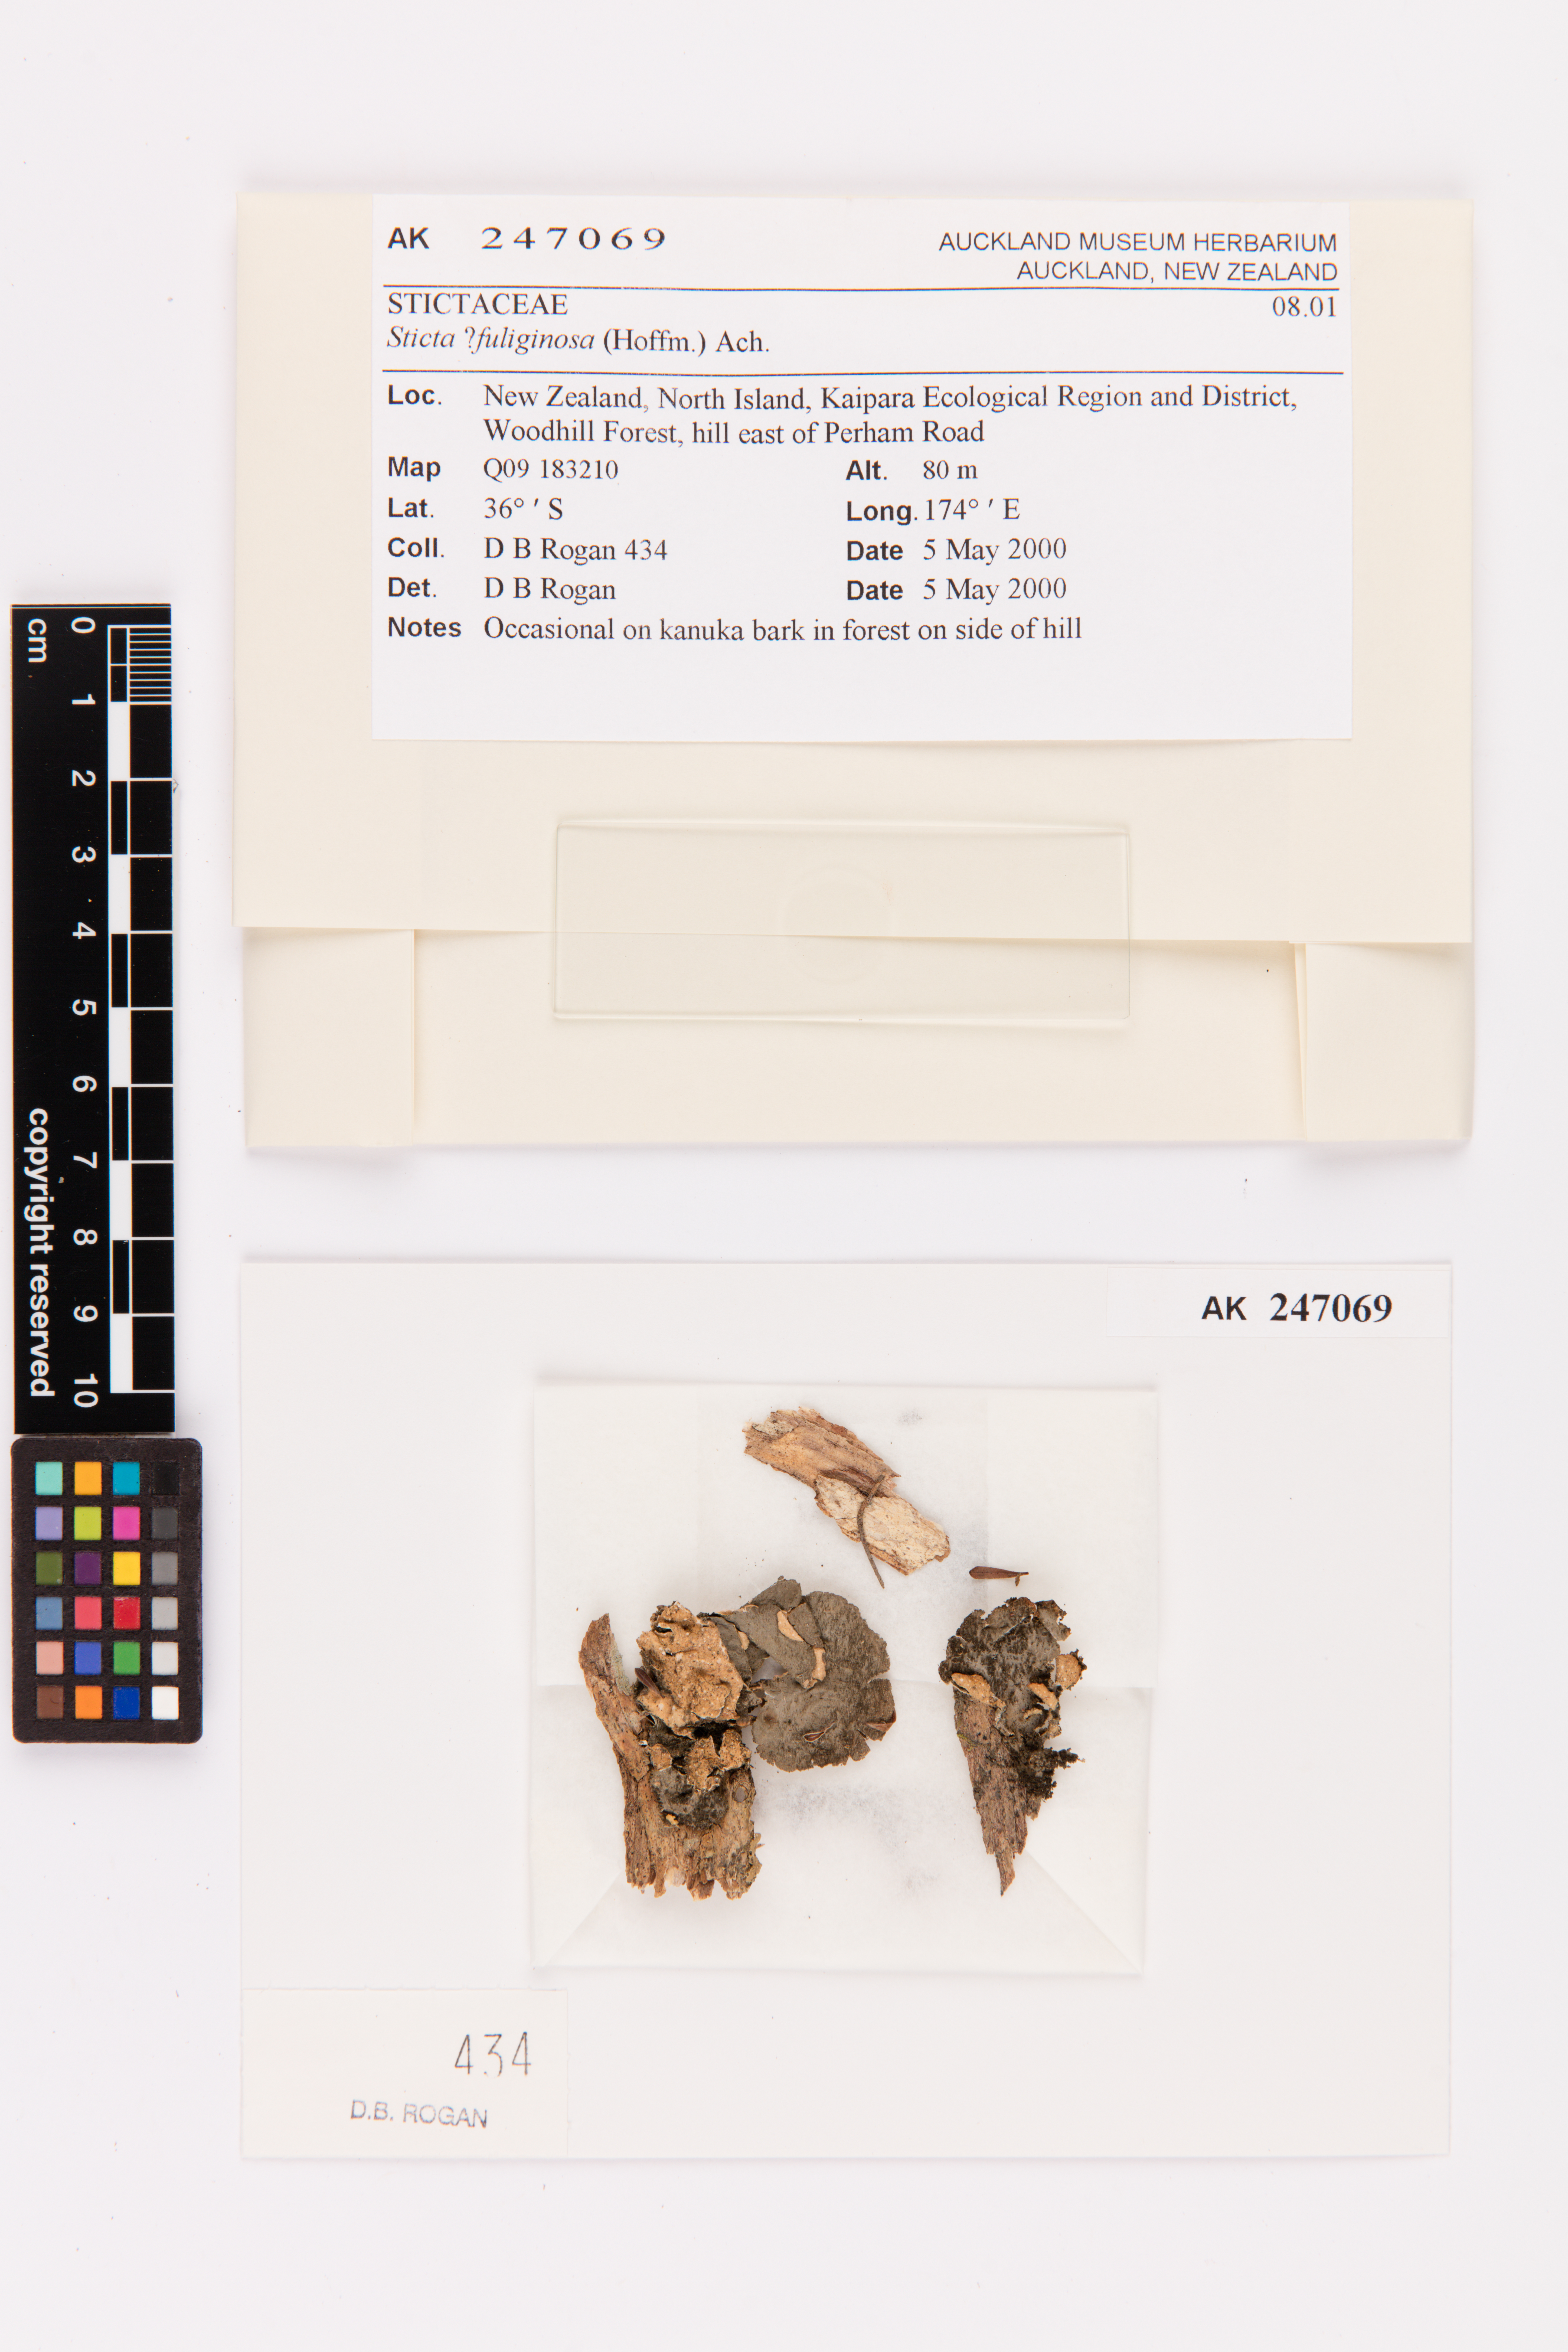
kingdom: Fungi
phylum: Ascomycota
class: Lecanoromycetes
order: Peltigerales
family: Lobariaceae
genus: Sticta
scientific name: Sticta fuliginosa
